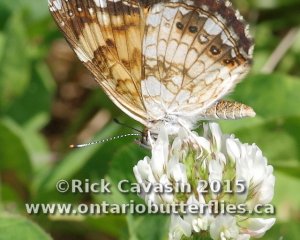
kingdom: Animalia
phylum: Arthropoda
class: Insecta
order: Lepidoptera
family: Nymphalidae
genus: Chlosyne
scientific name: Chlosyne nycteis
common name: Silvery Checkerspot
